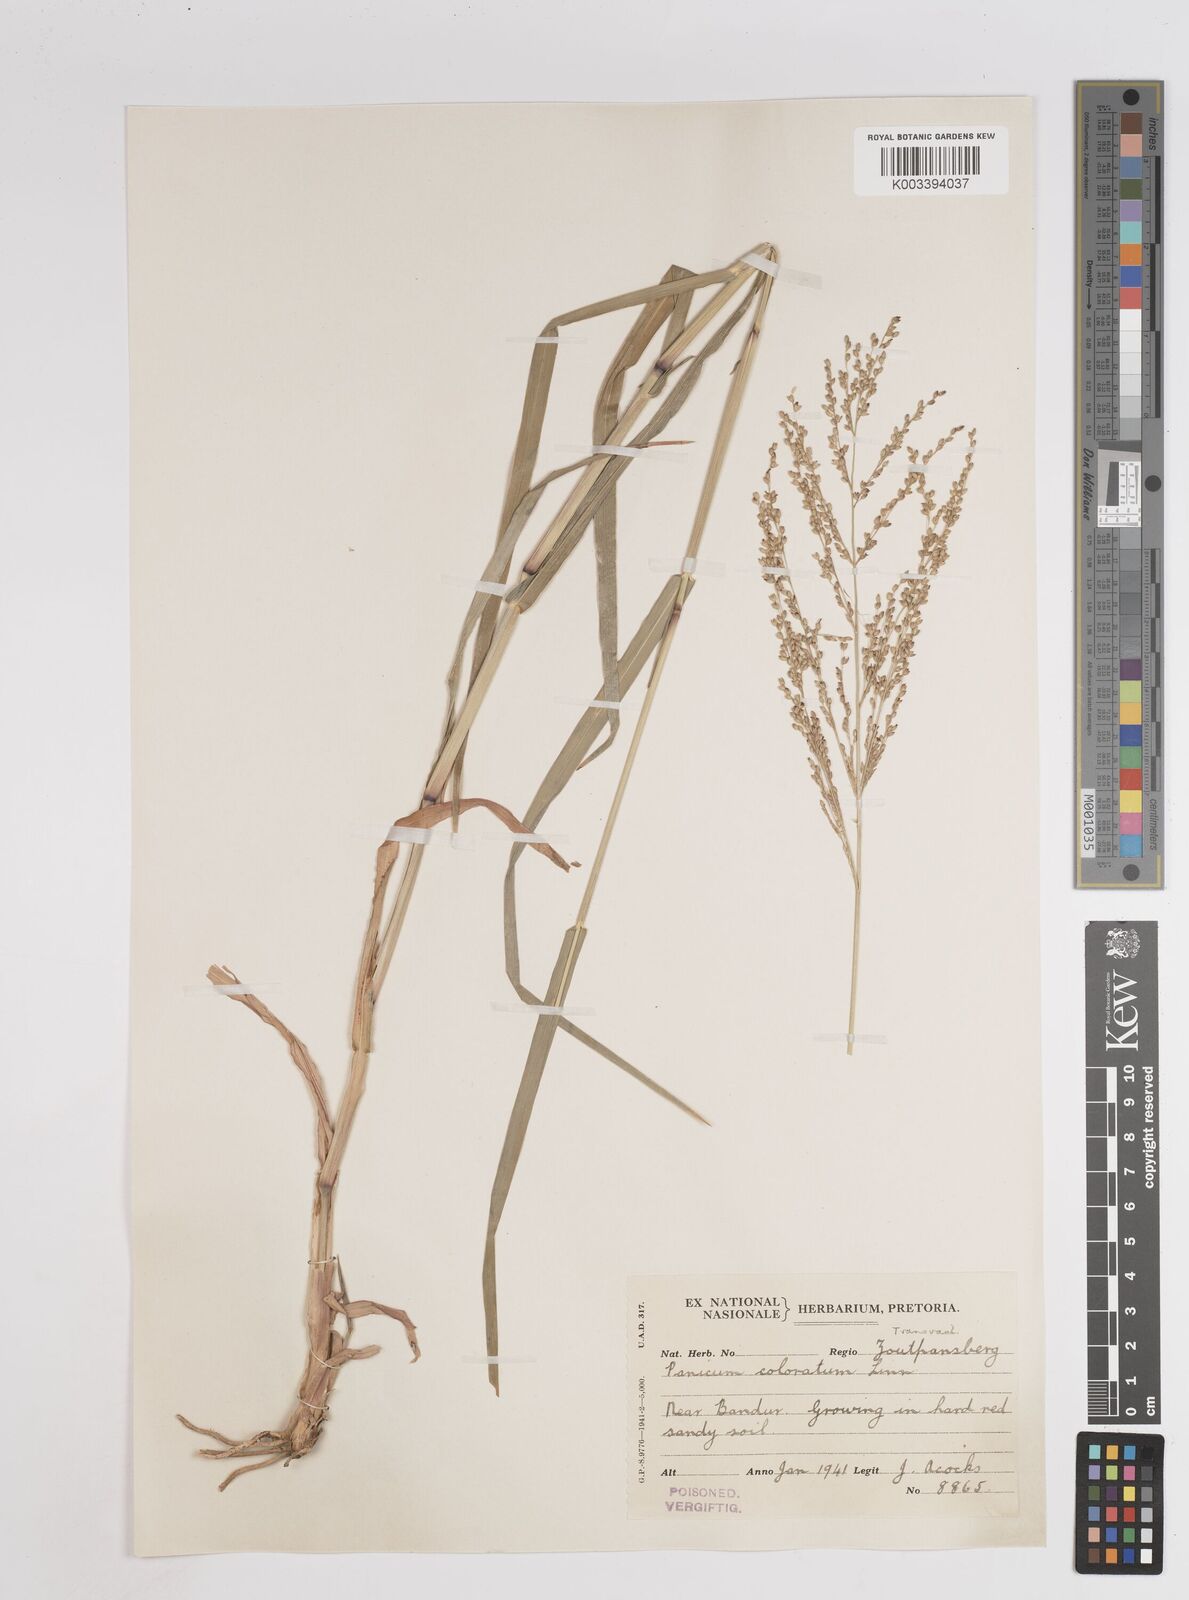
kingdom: Plantae
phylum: Tracheophyta
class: Liliopsida
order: Poales
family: Poaceae
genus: Panicum
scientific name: Panicum coloratum
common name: Kleingrass
